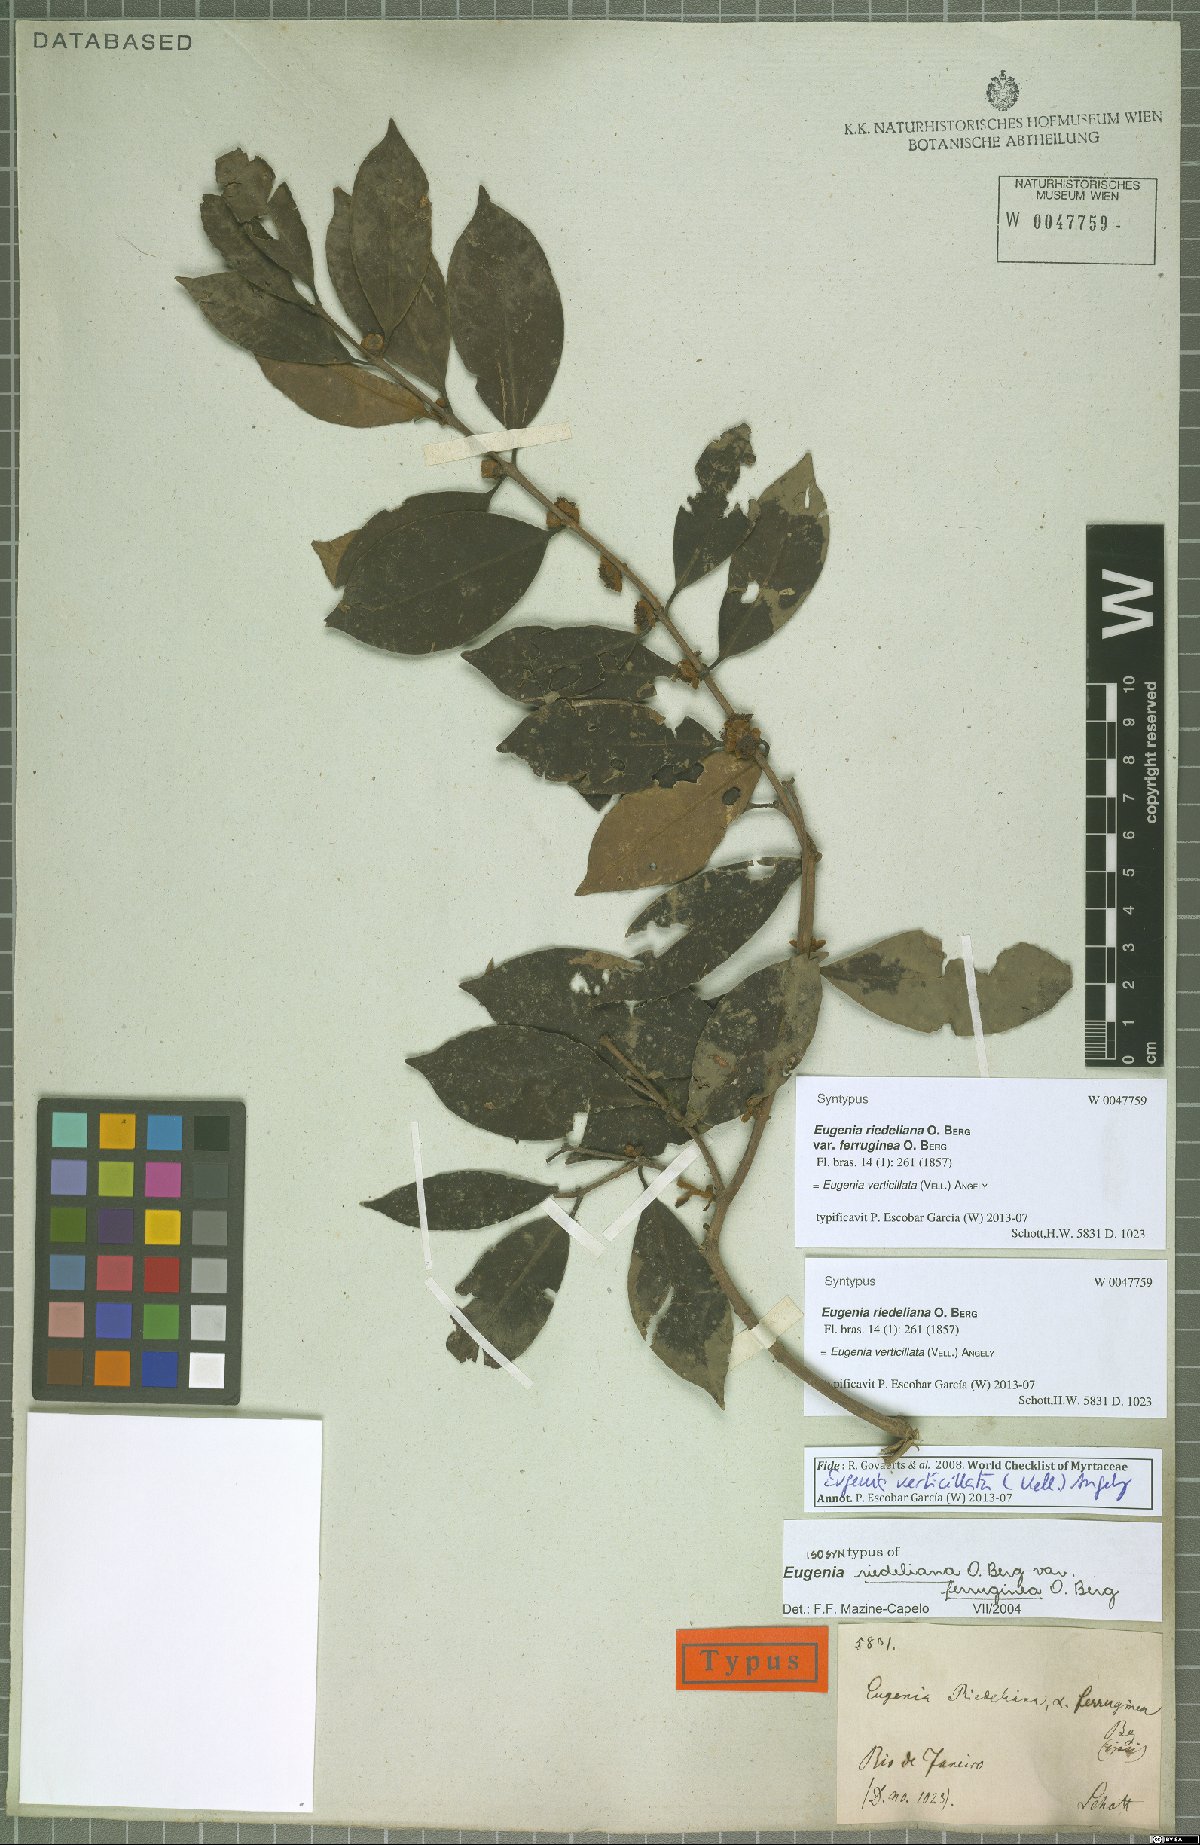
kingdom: Plantae
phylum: Tracheophyta
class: Magnoliopsida
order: Myrtales
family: Myrtaceae
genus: Eugenia
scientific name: Eugenia verticillata
